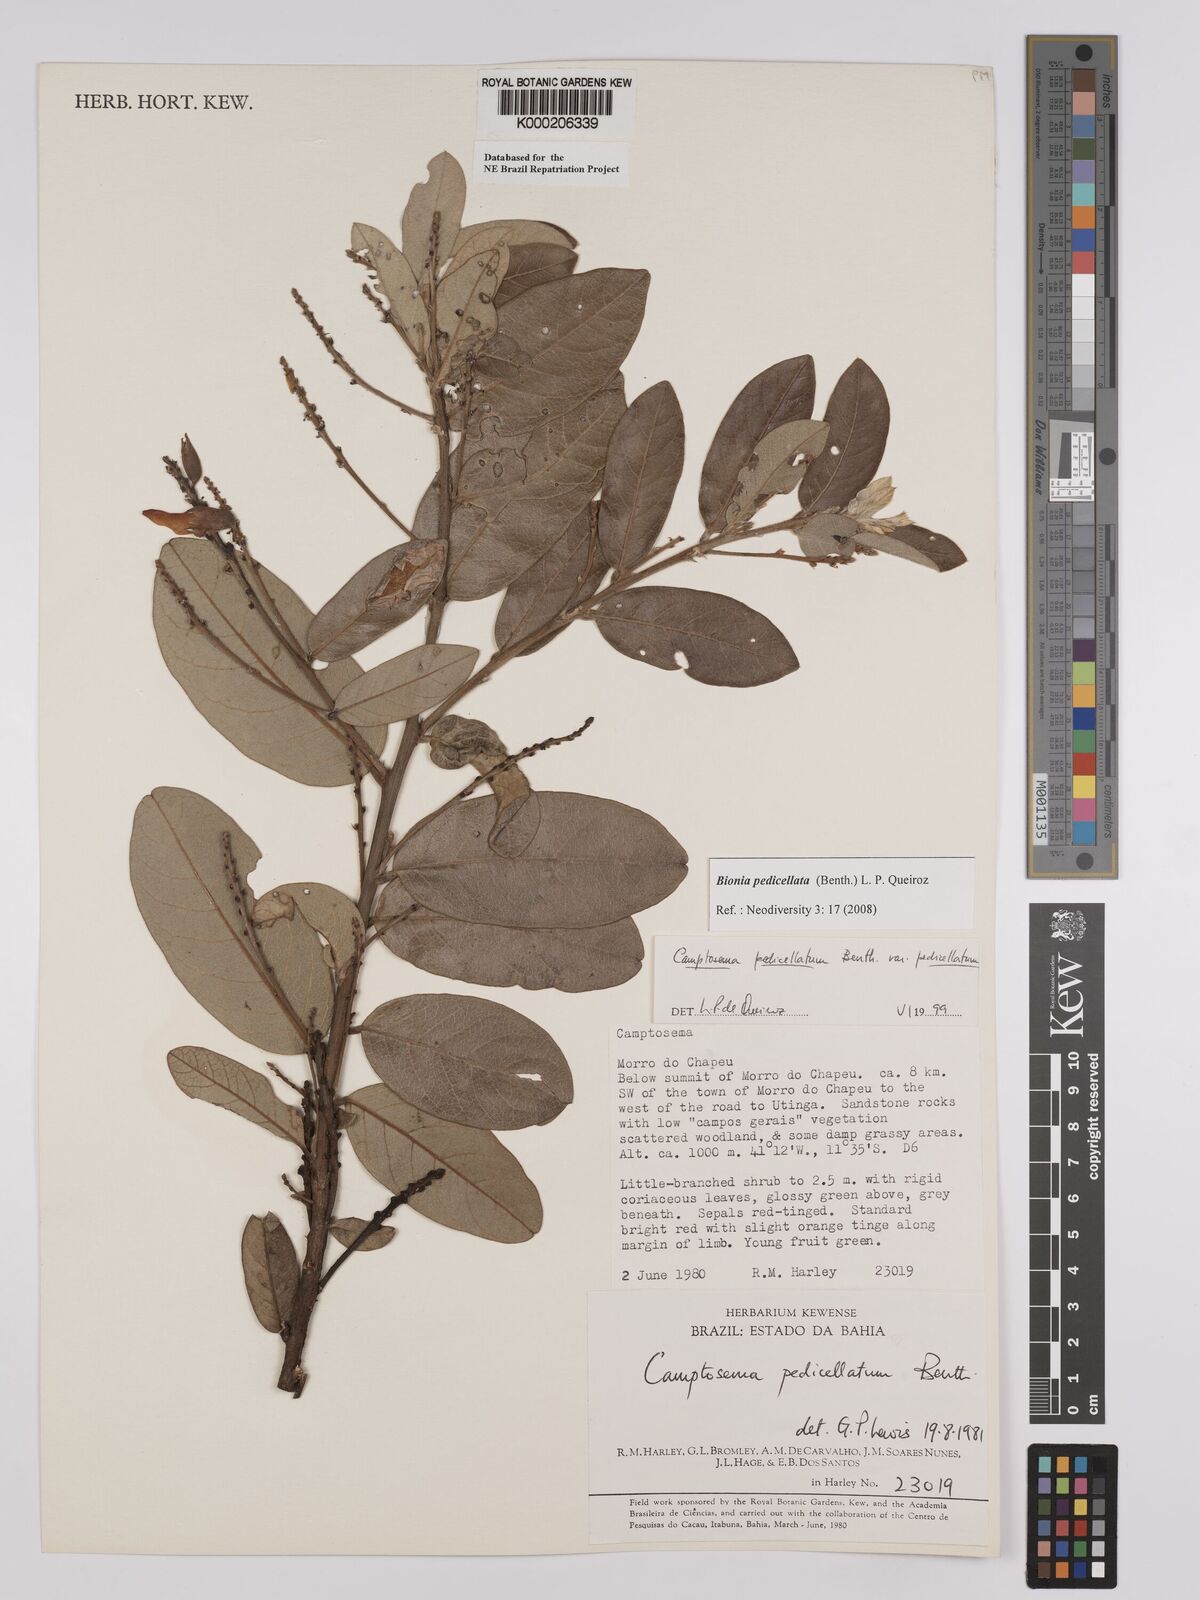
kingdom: Plantae
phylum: Tracheophyta
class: Magnoliopsida
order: Fabales
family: Fabaceae
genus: Camptosema
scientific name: Camptosema pedicellatum
